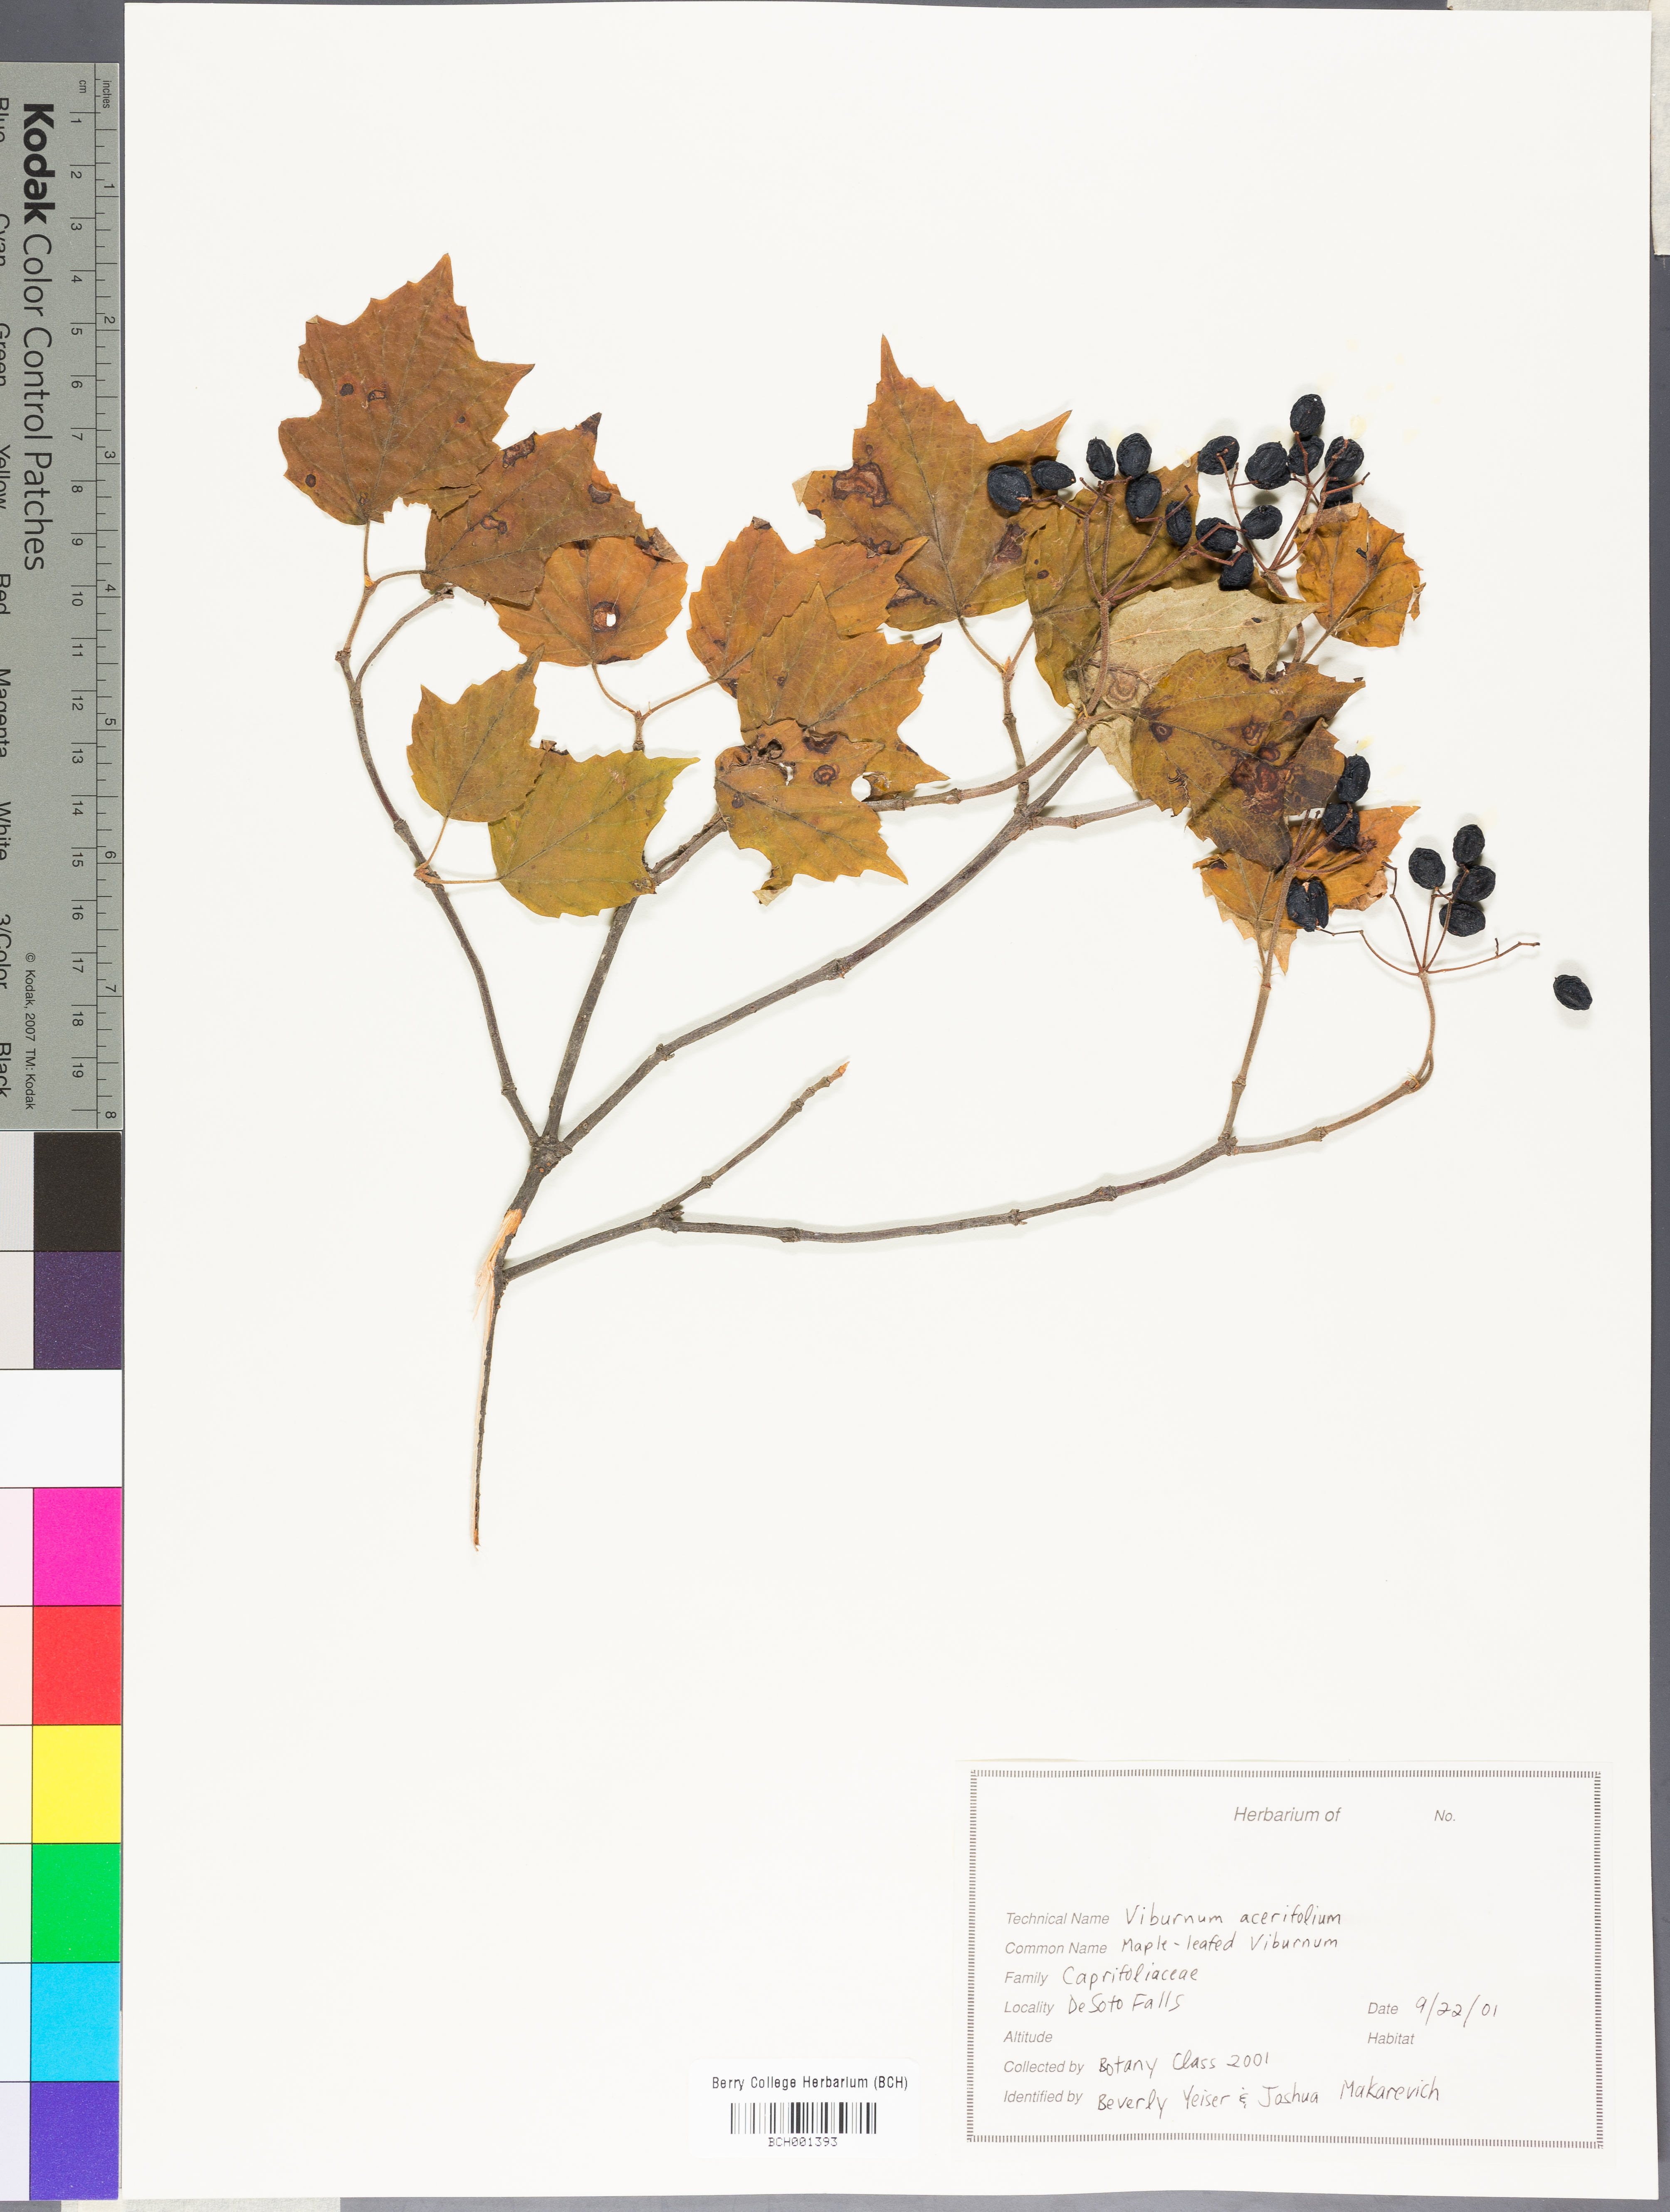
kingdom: Plantae
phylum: Tracheophyta
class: Magnoliopsida
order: Dipsacales
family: Viburnaceae
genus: Viburnum
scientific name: Viburnum acerifolium
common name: Dockmackie
